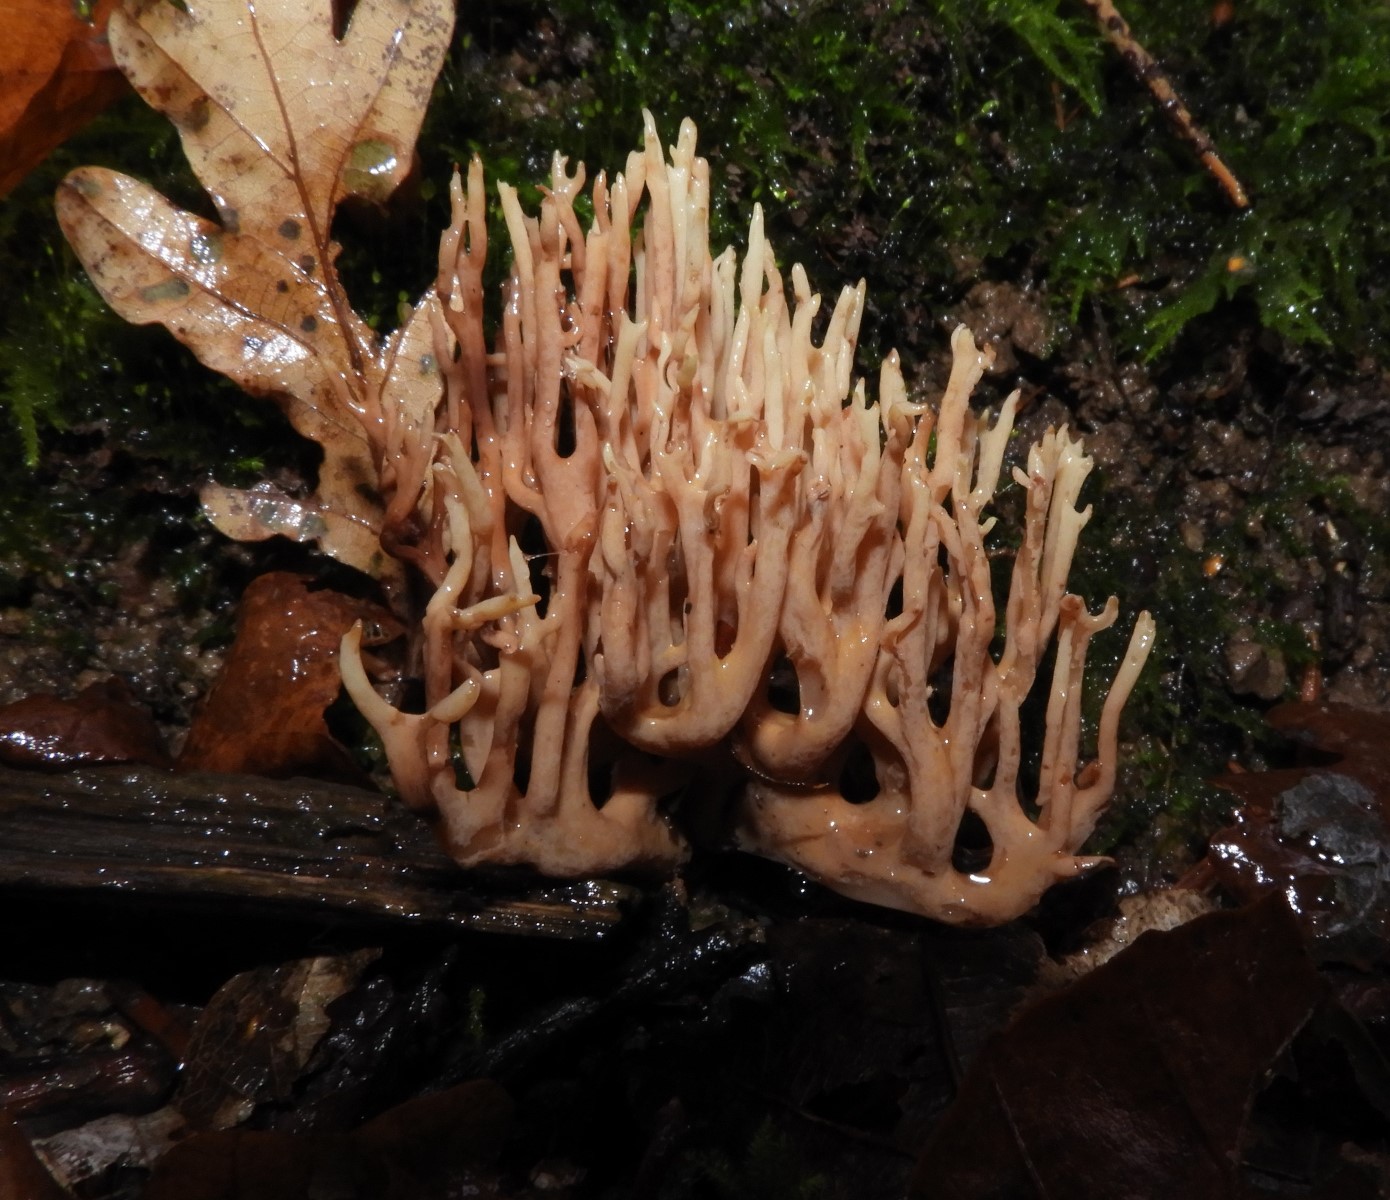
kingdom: Fungi
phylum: Basidiomycota
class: Agaricomycetes
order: Gomphales
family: Gomphaceae
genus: Ramaria
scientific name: Ramaria stricta
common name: rank koralsvamp
